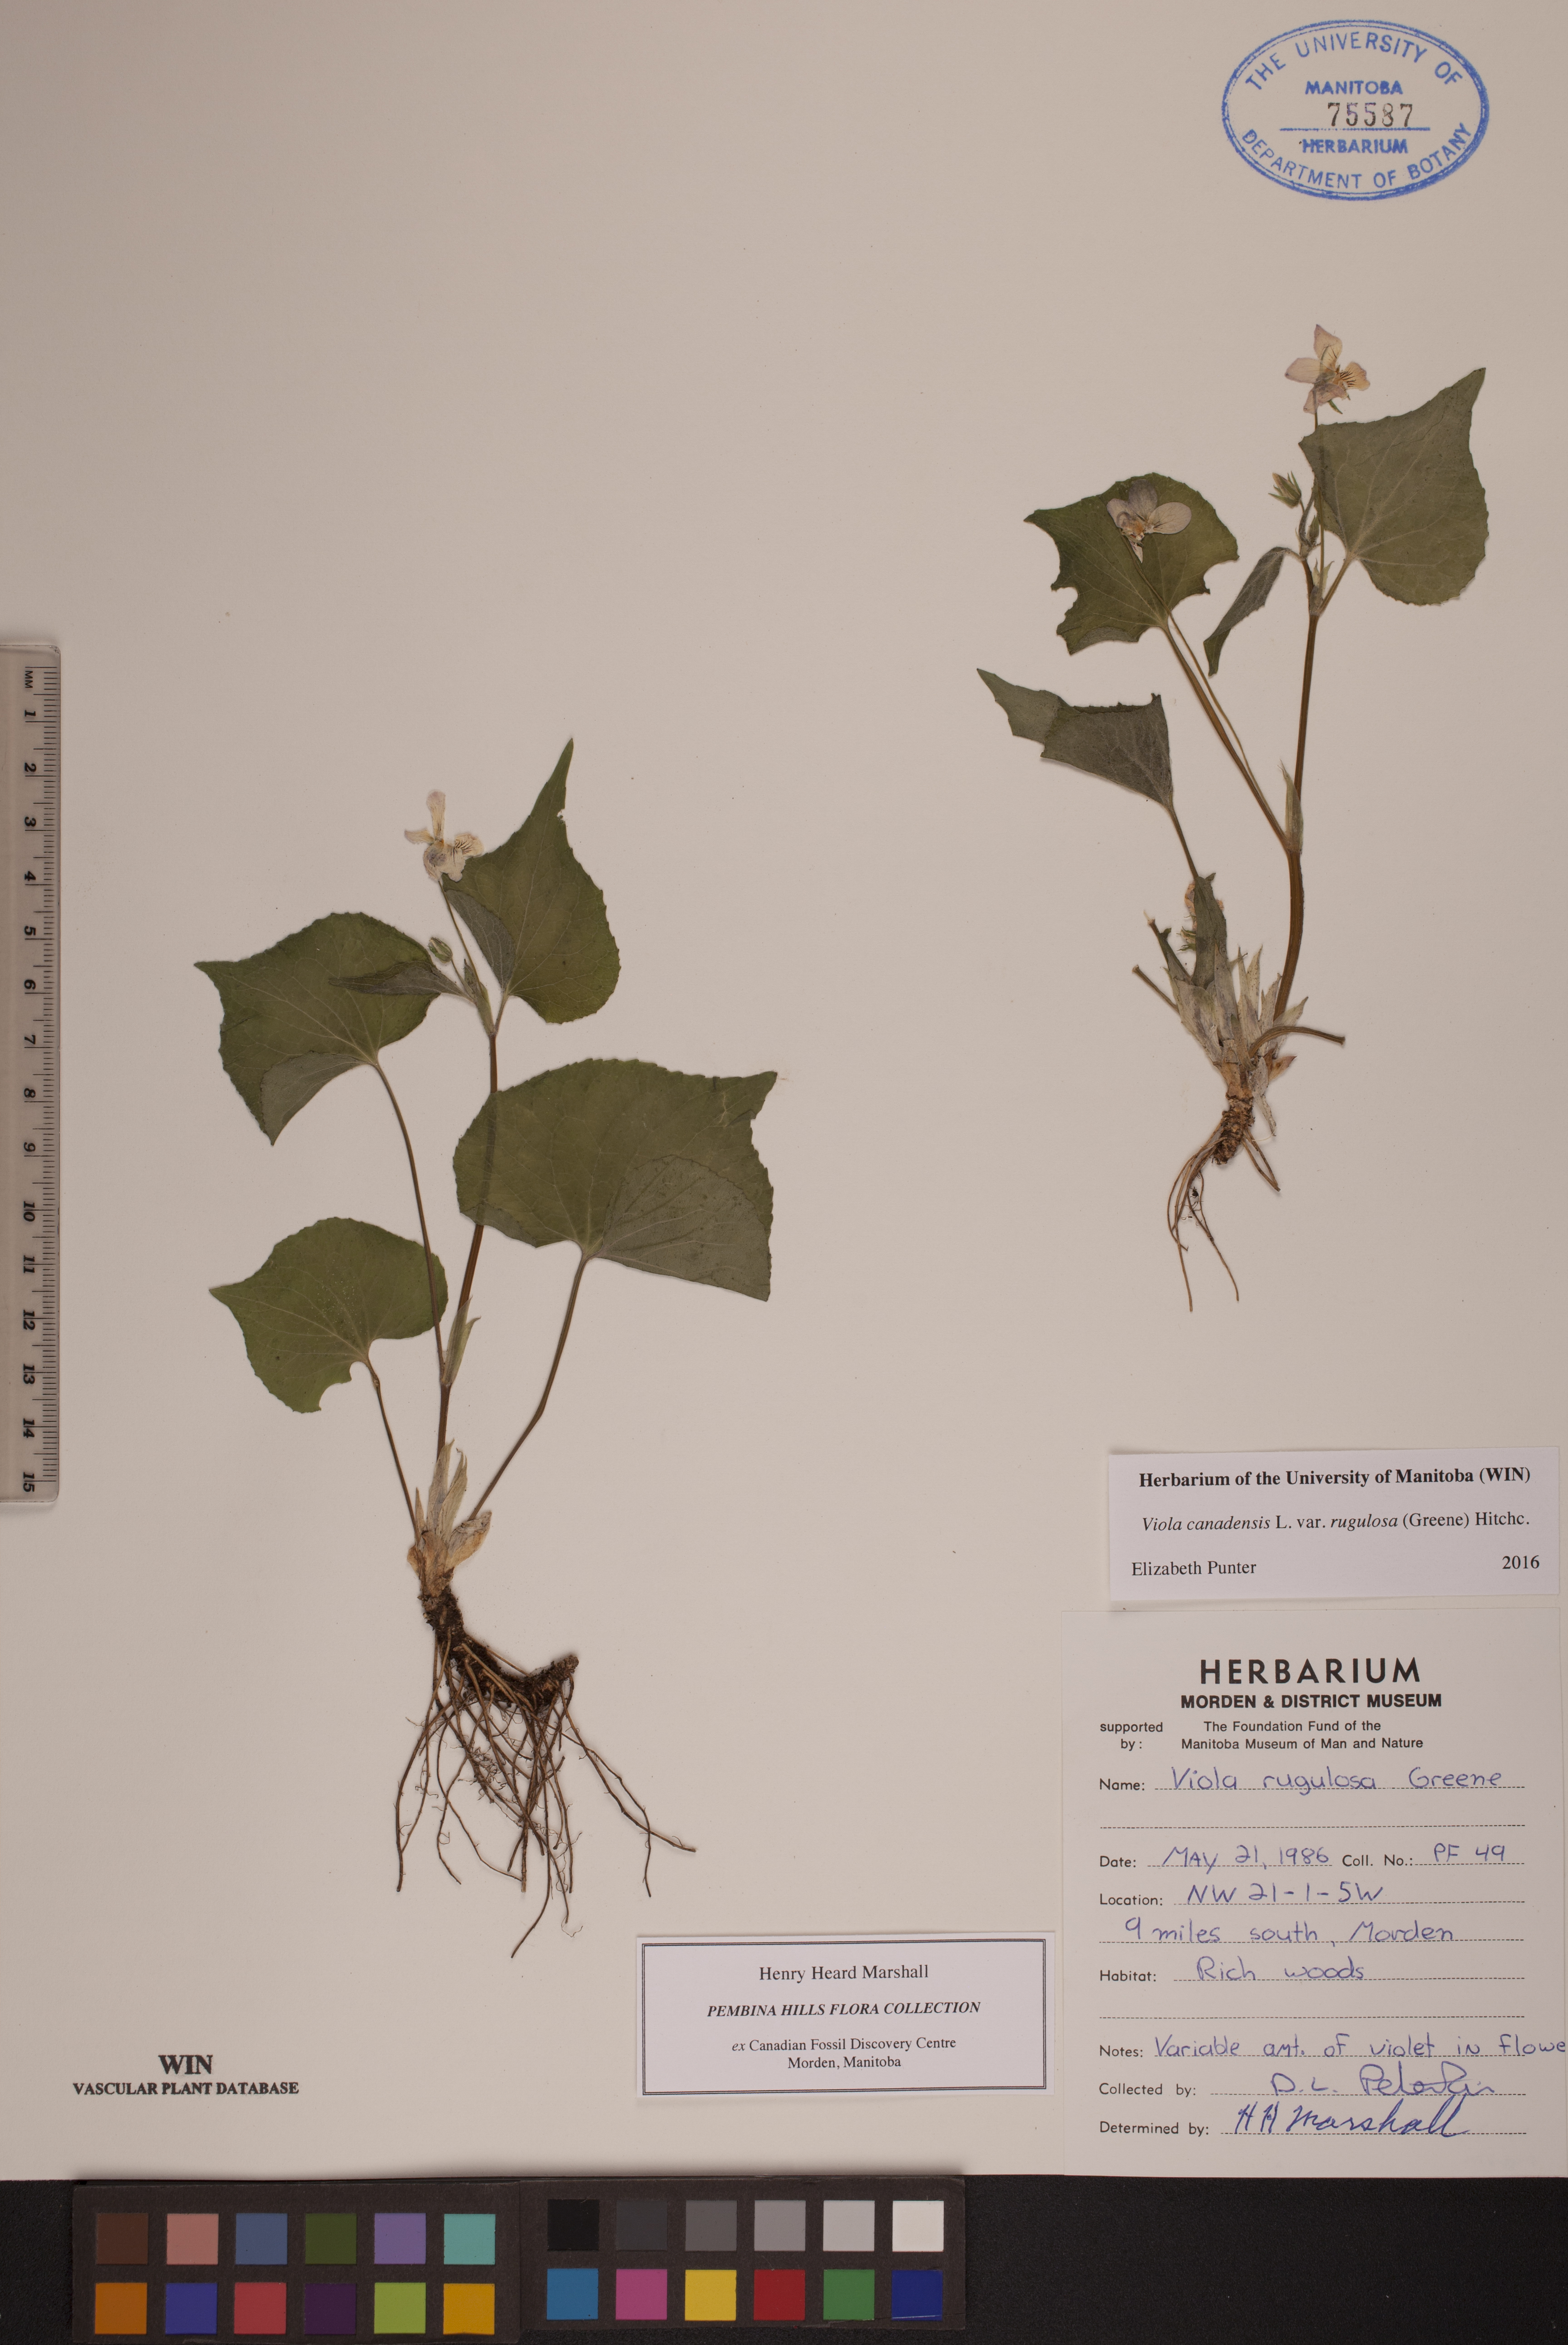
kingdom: Plantae
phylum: Tracheophyta
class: Magnoliopsida
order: Malpighiales
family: Violaceae
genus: Viola
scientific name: Viola rugulosa
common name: Creeping-root violet
